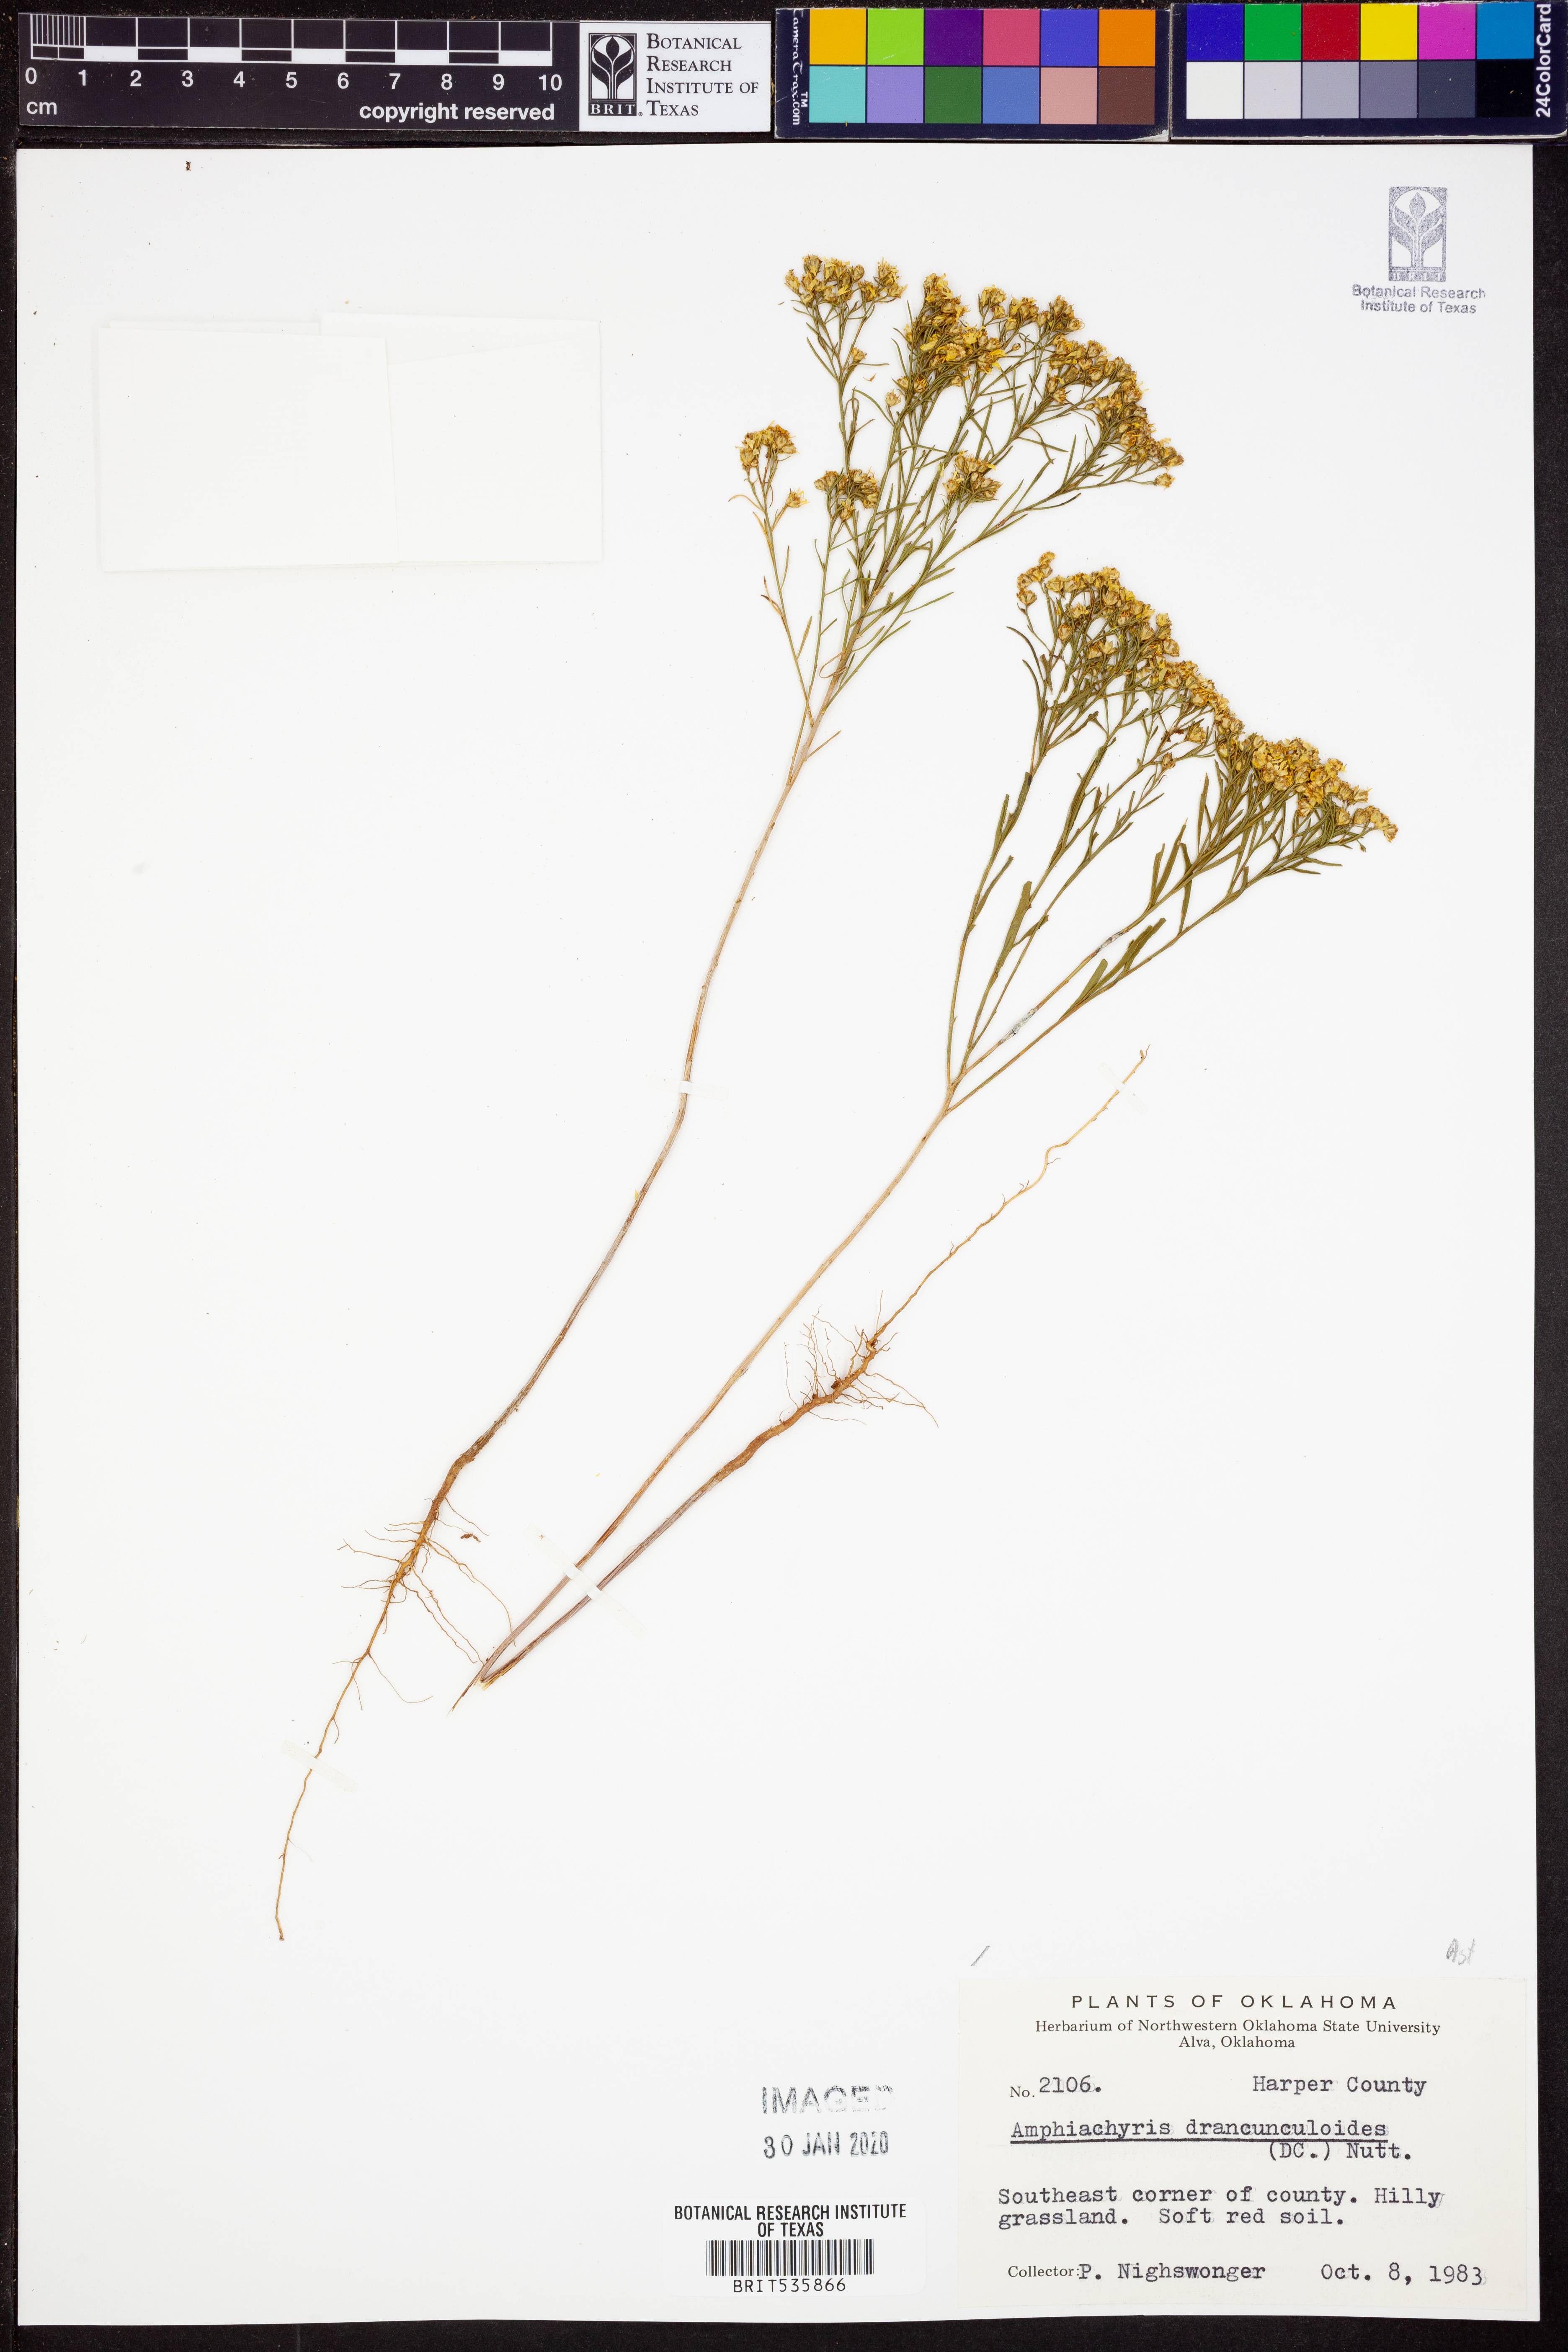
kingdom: Plantae
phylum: Tracheophyta
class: Magnoliopsida
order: Asterales
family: Asteraceae
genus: Amphiachyris
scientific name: Amphiachyris dracunculoides
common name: Broomweed
